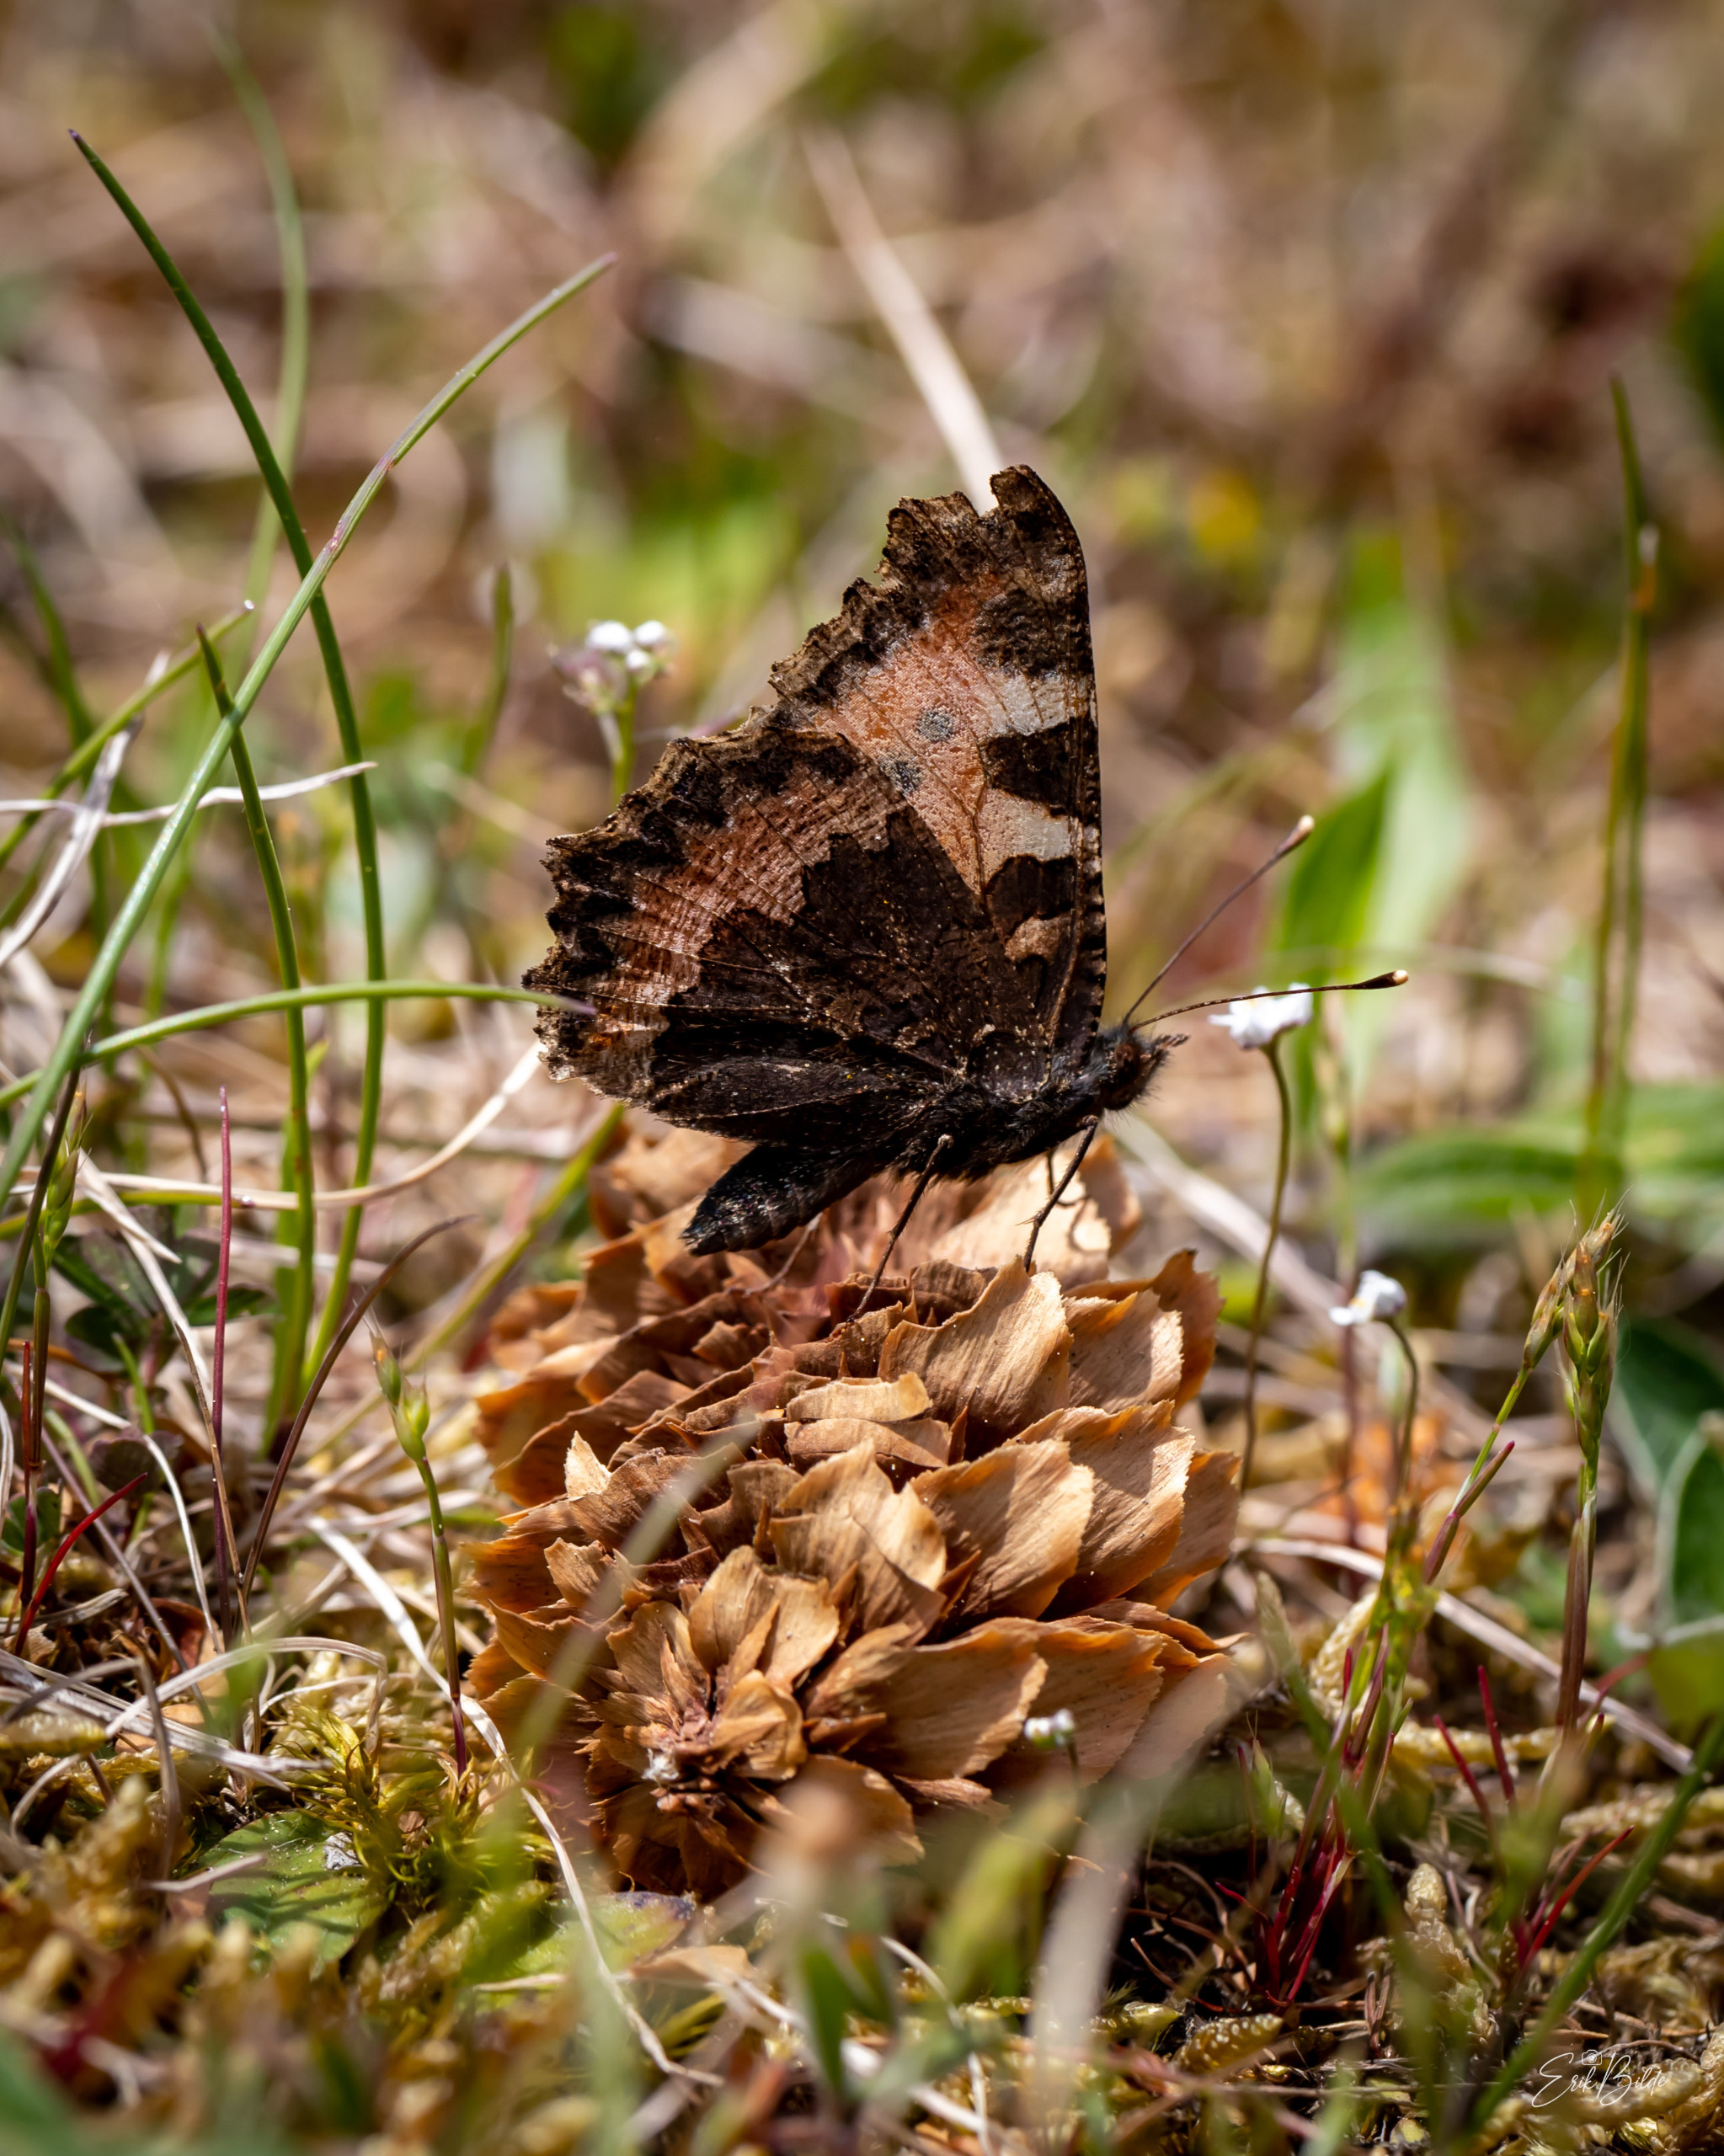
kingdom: Animalia
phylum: Arthropoda
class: Insecta
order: Lepidoptera
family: Nymphalidae
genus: Aglais
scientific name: Aglais urticae
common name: Nældens takvinge
